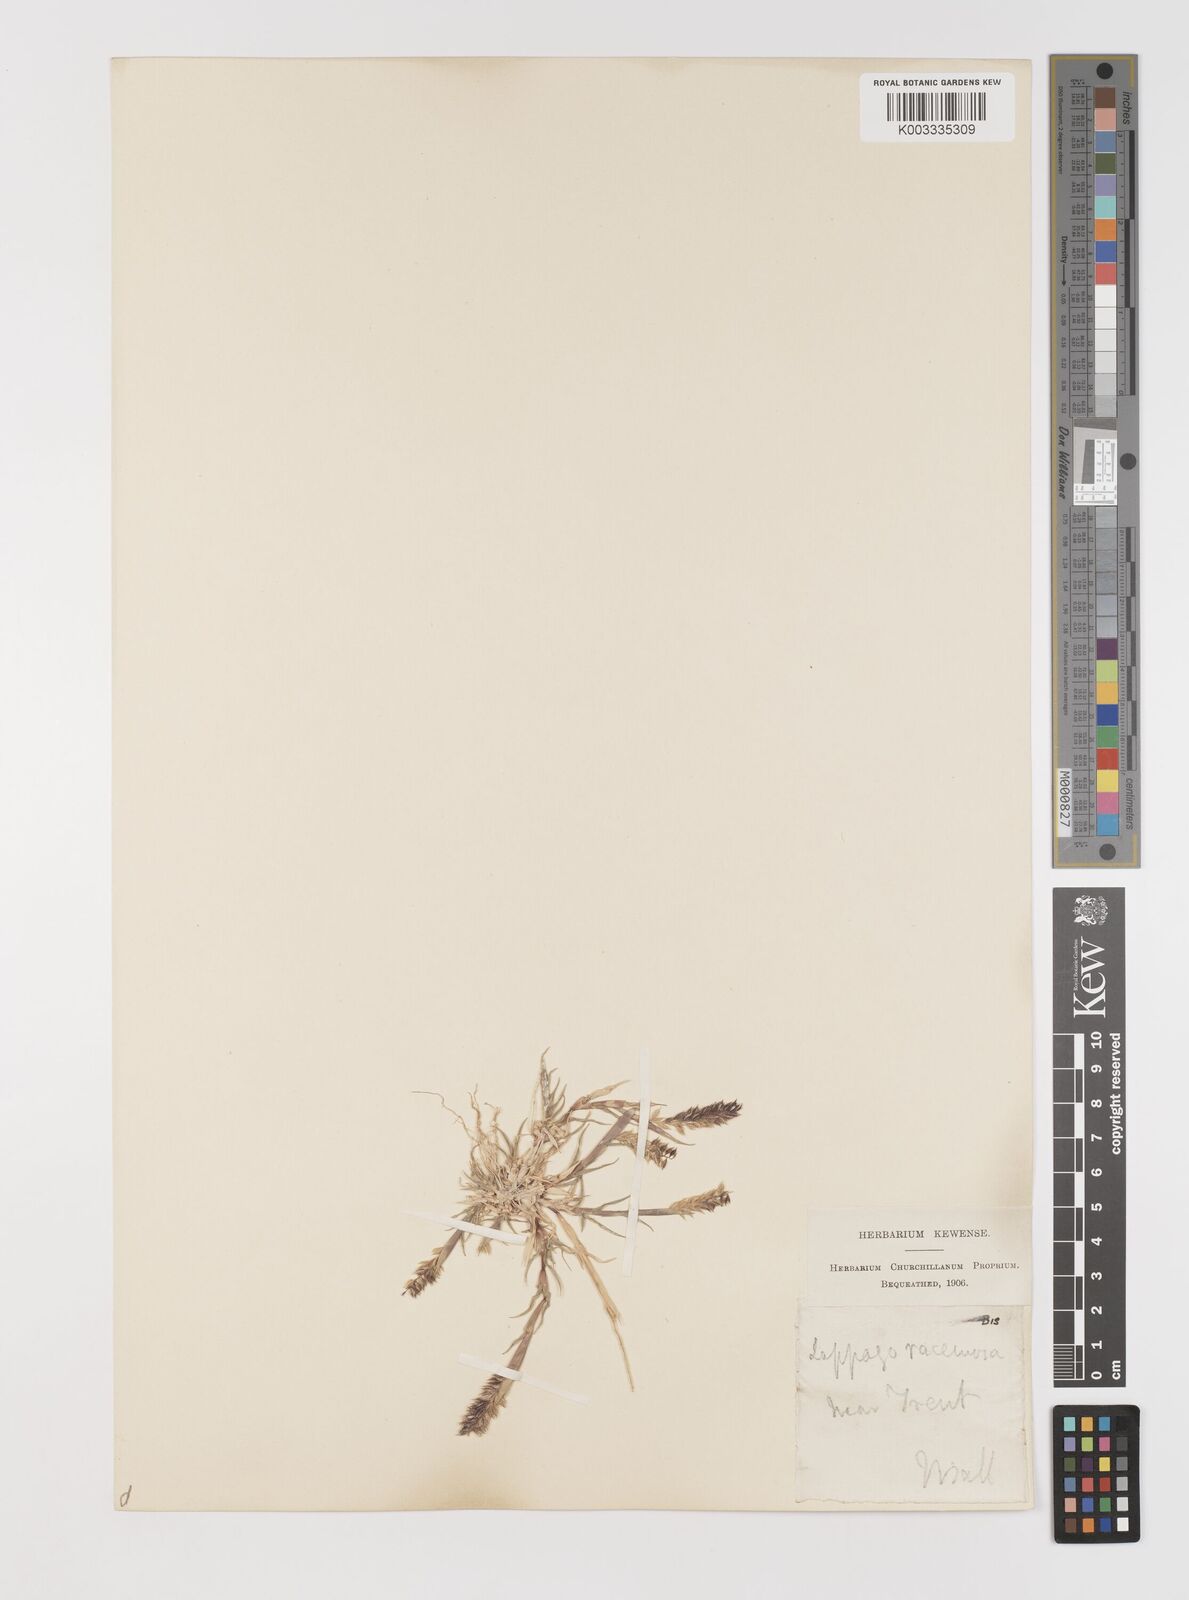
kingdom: Plantae
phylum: Tracheophyta
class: Liliopsida
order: Poales
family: Poaceae
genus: Tragus
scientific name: Tragus racemosus
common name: European bur-grass
